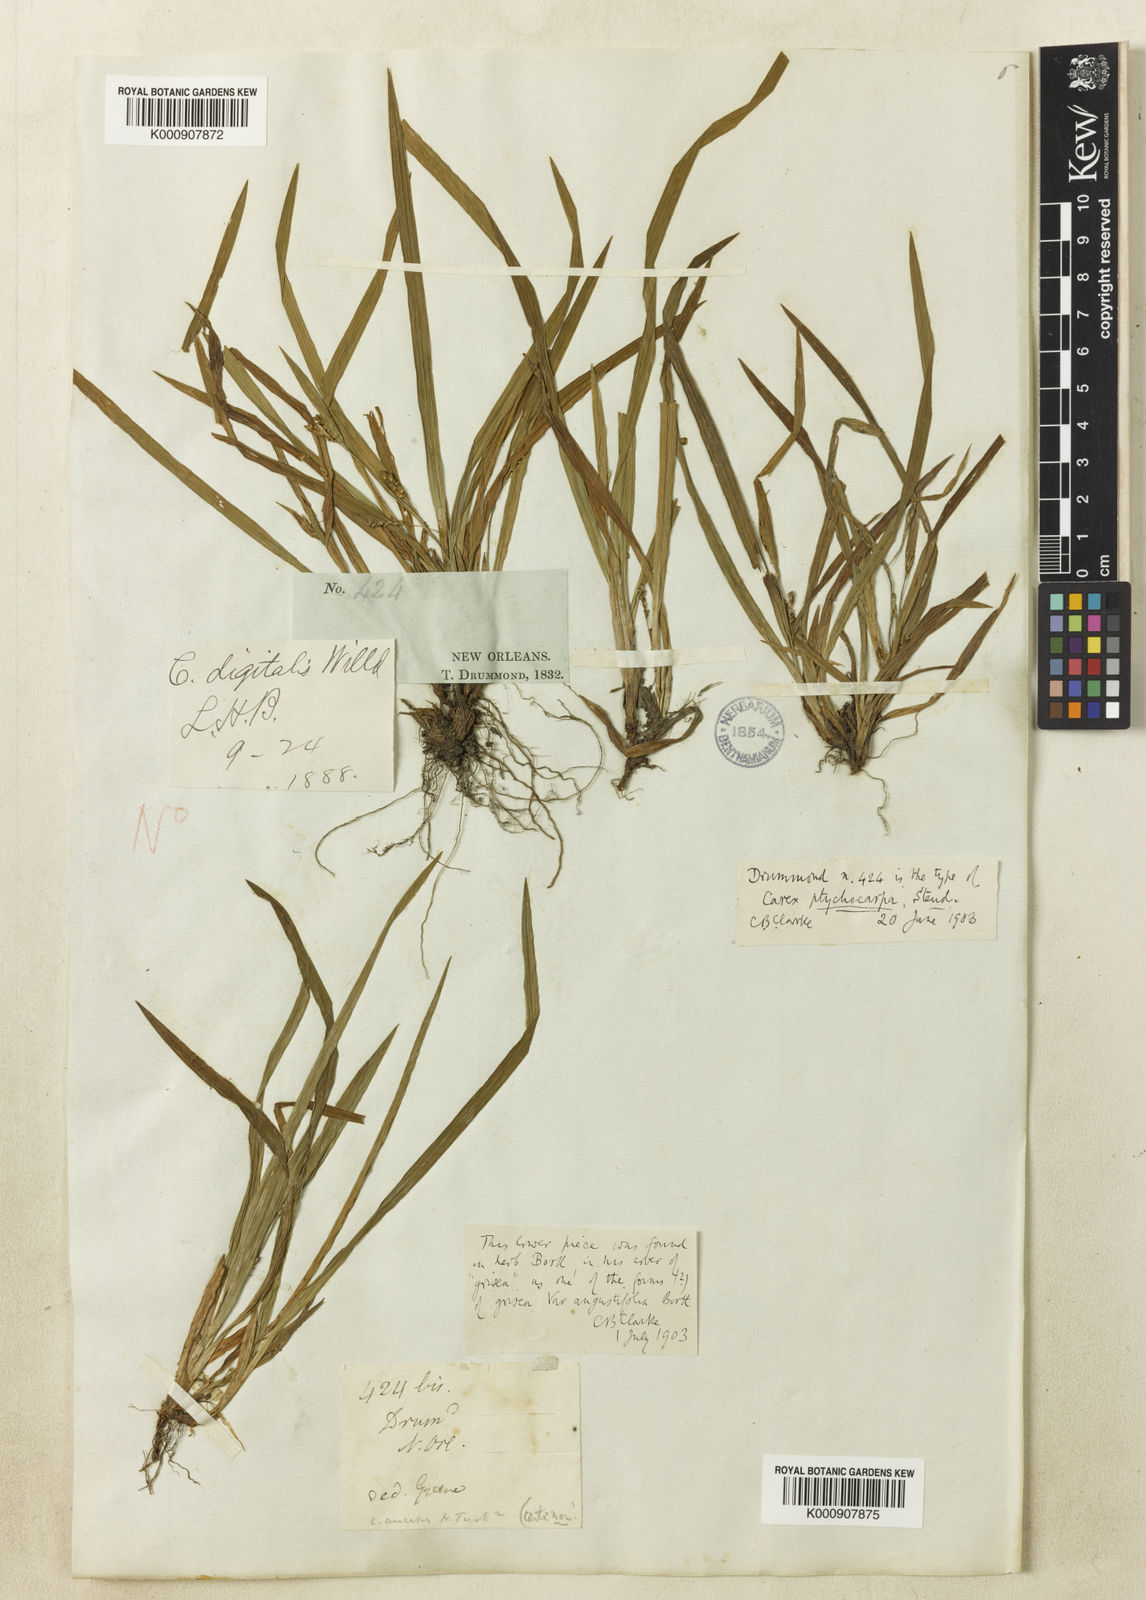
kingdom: Plantae
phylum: Tracheophyta
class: Liliopsida
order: Poales
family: Cyperaceae
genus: Carex
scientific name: Carex abscondita
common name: Thicket sedge
